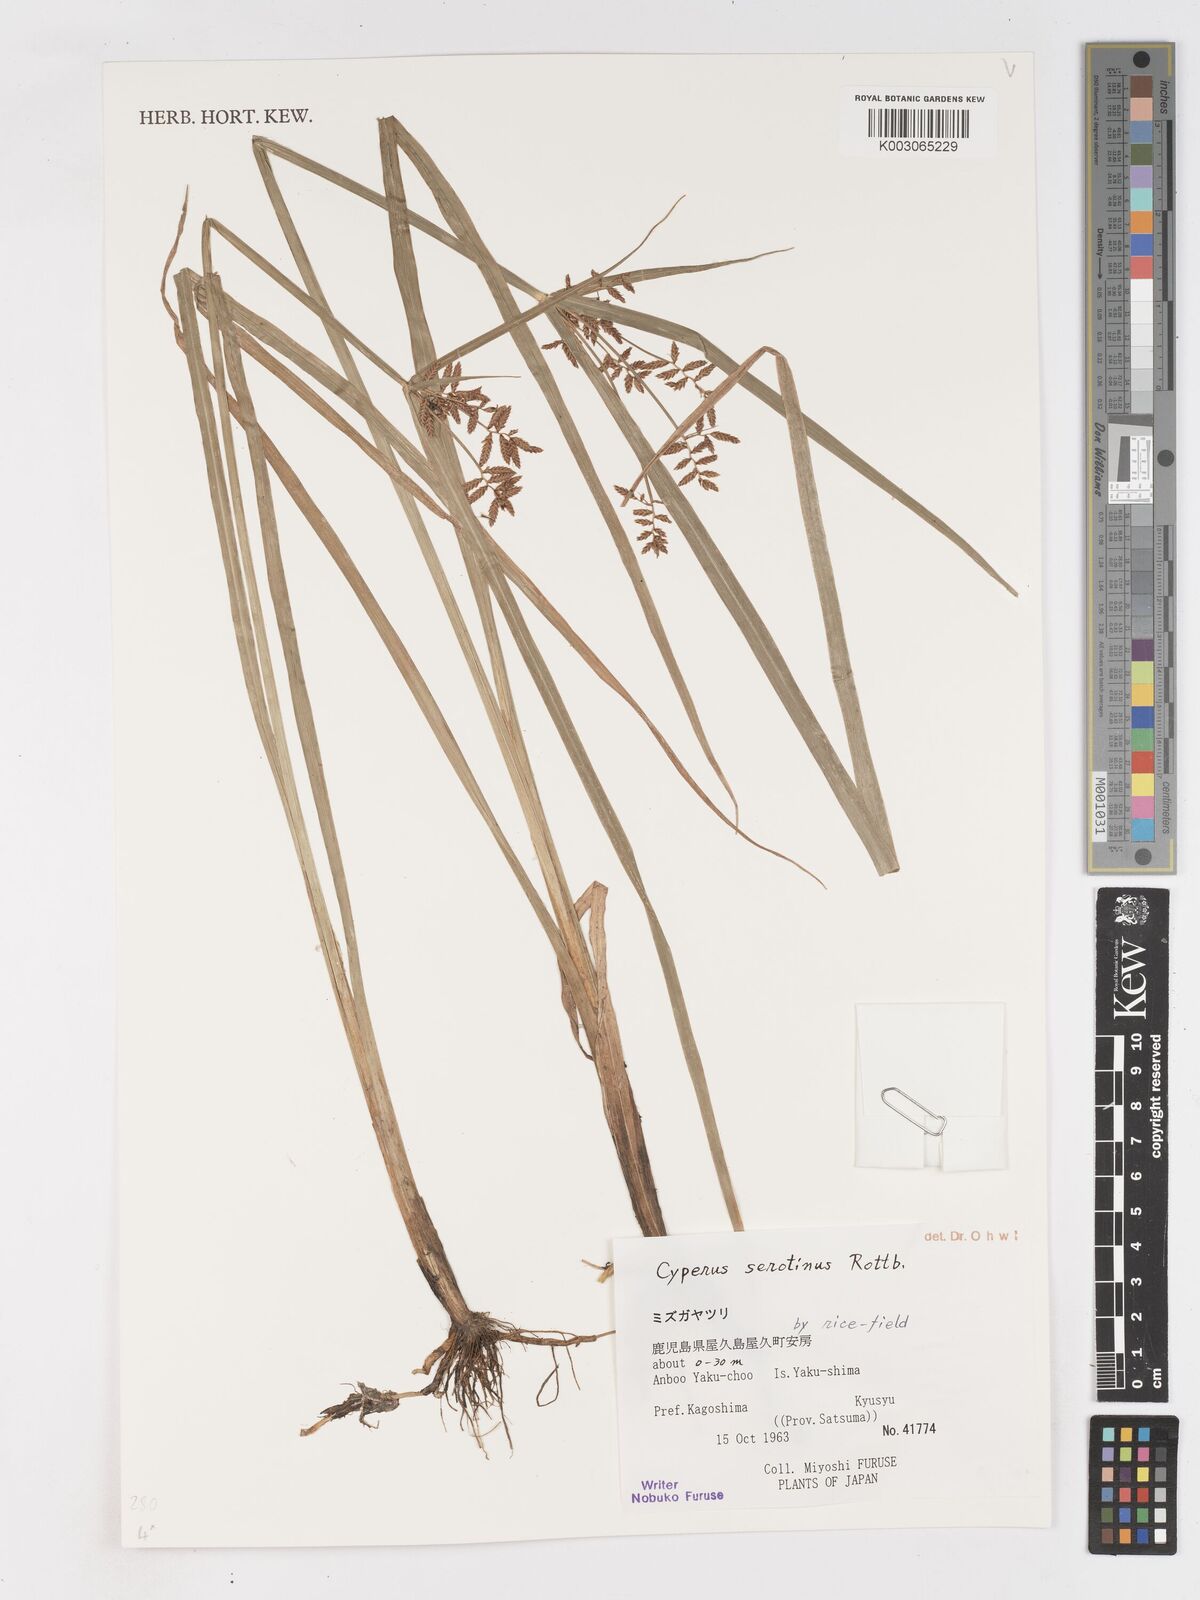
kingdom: Plantae
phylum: Tracheophyta
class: Liliopsida
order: Poales
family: Cyperaceae
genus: Cyperus
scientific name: Cyperus serotinus
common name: Tidalmarsh flatsedge
